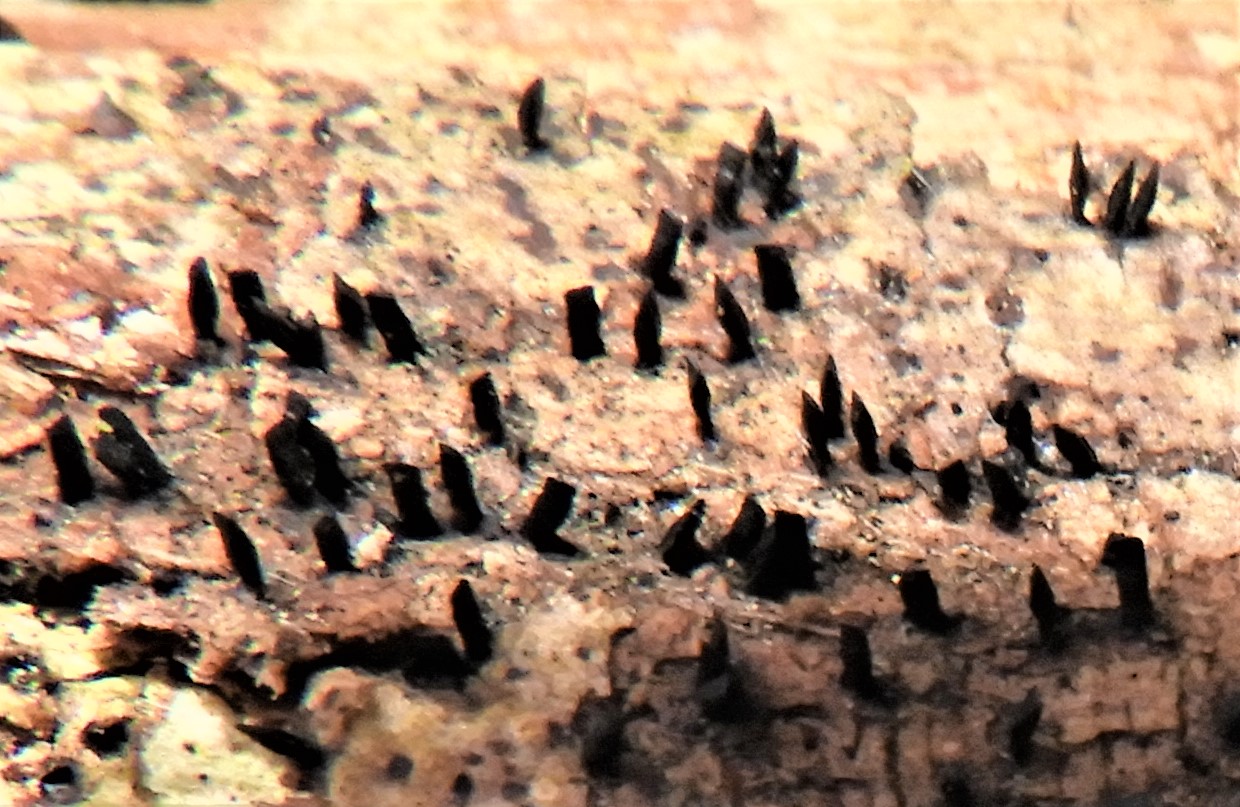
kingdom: Fungi
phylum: Ascomycota
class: Eurotiomycetes
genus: Glyphium
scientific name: Glyphium elatum
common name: kuløkse
